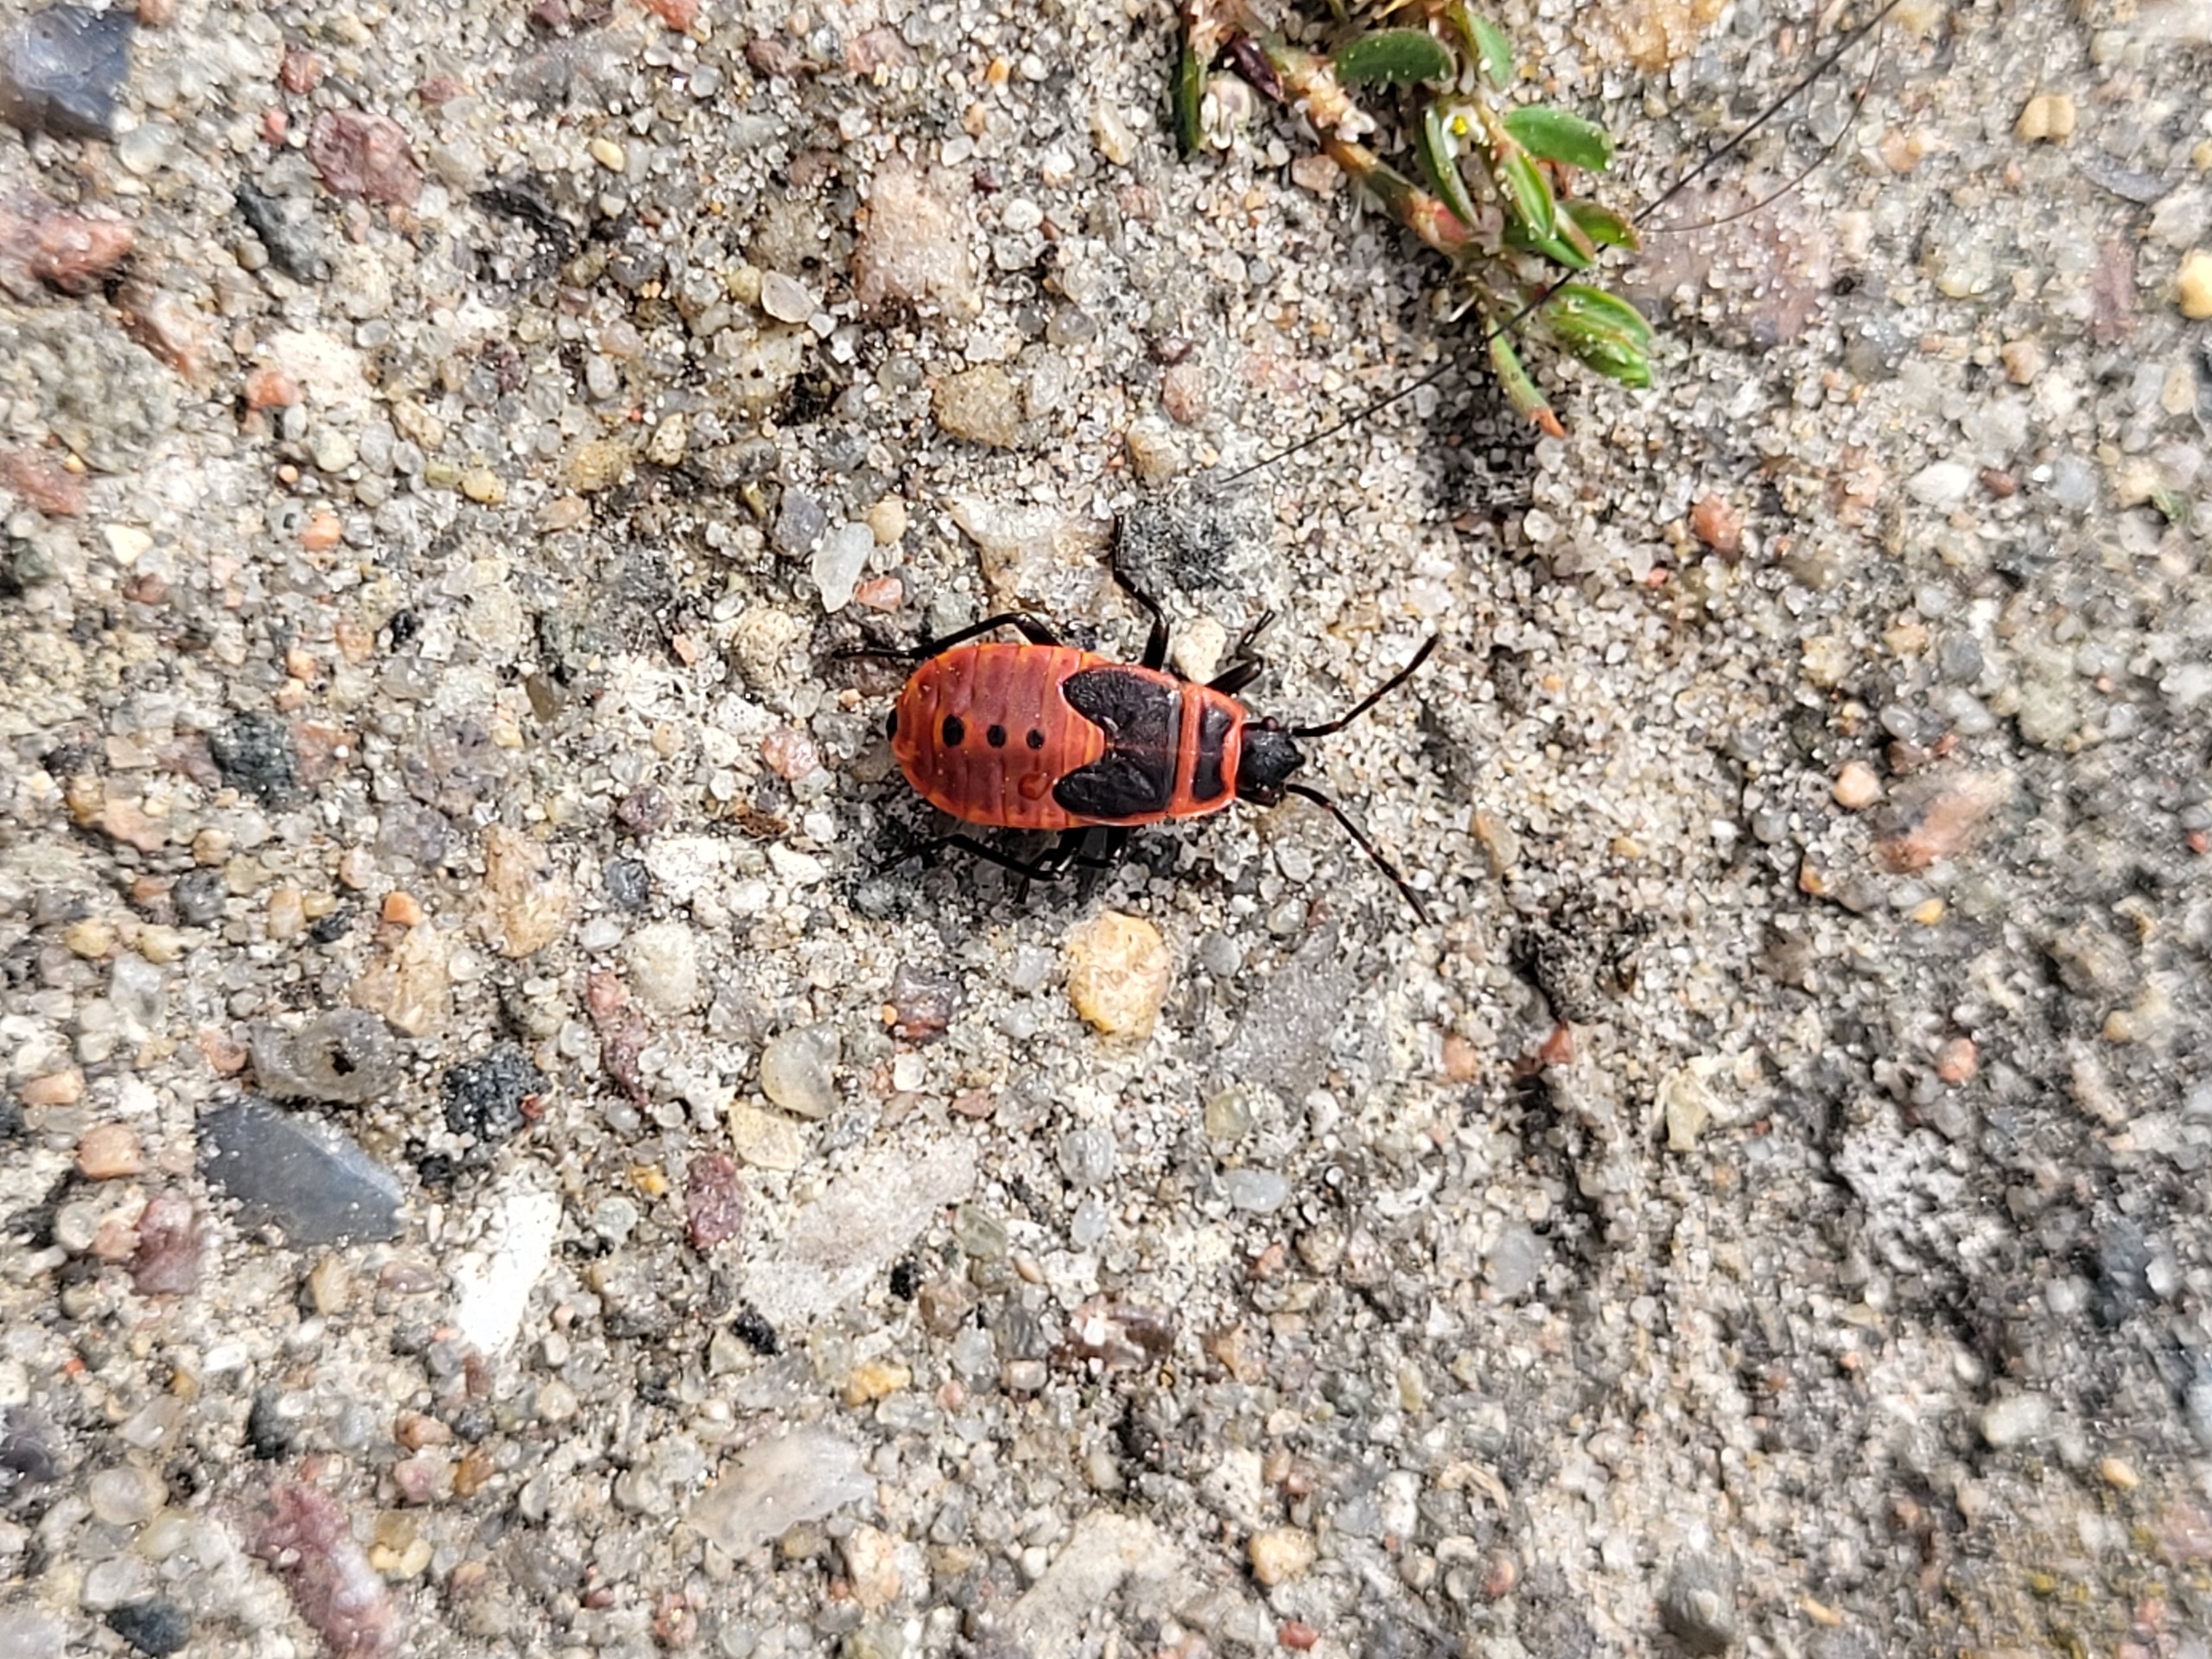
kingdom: Animalia
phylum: Arthropoda
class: Insecta
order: Hemiptera
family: Pyrrhocoridae
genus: Pyrrhocoris
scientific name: Pyrrhocoris apterus
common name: Ildtæge
